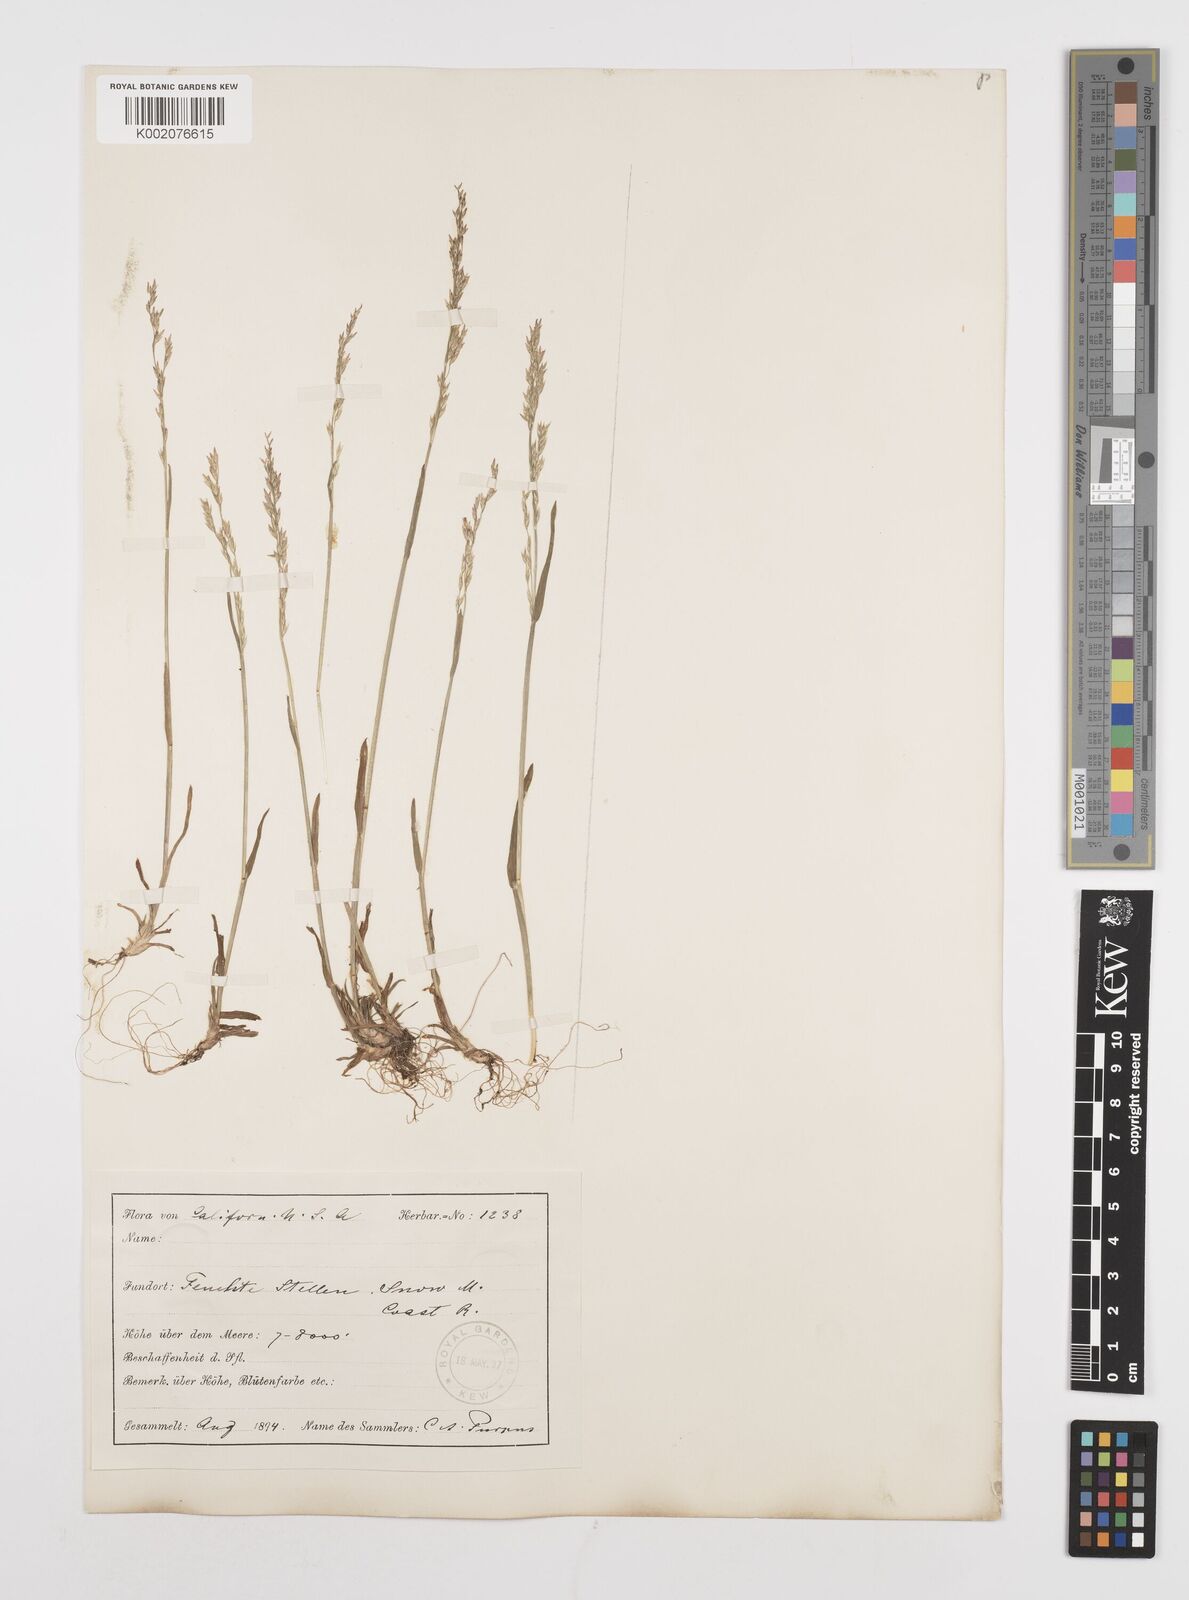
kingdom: Plantae
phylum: Tracheophyta
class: Liliopsida
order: Poales
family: Poaceae
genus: Poa
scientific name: Poa howellii
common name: Howell's bluegrass
